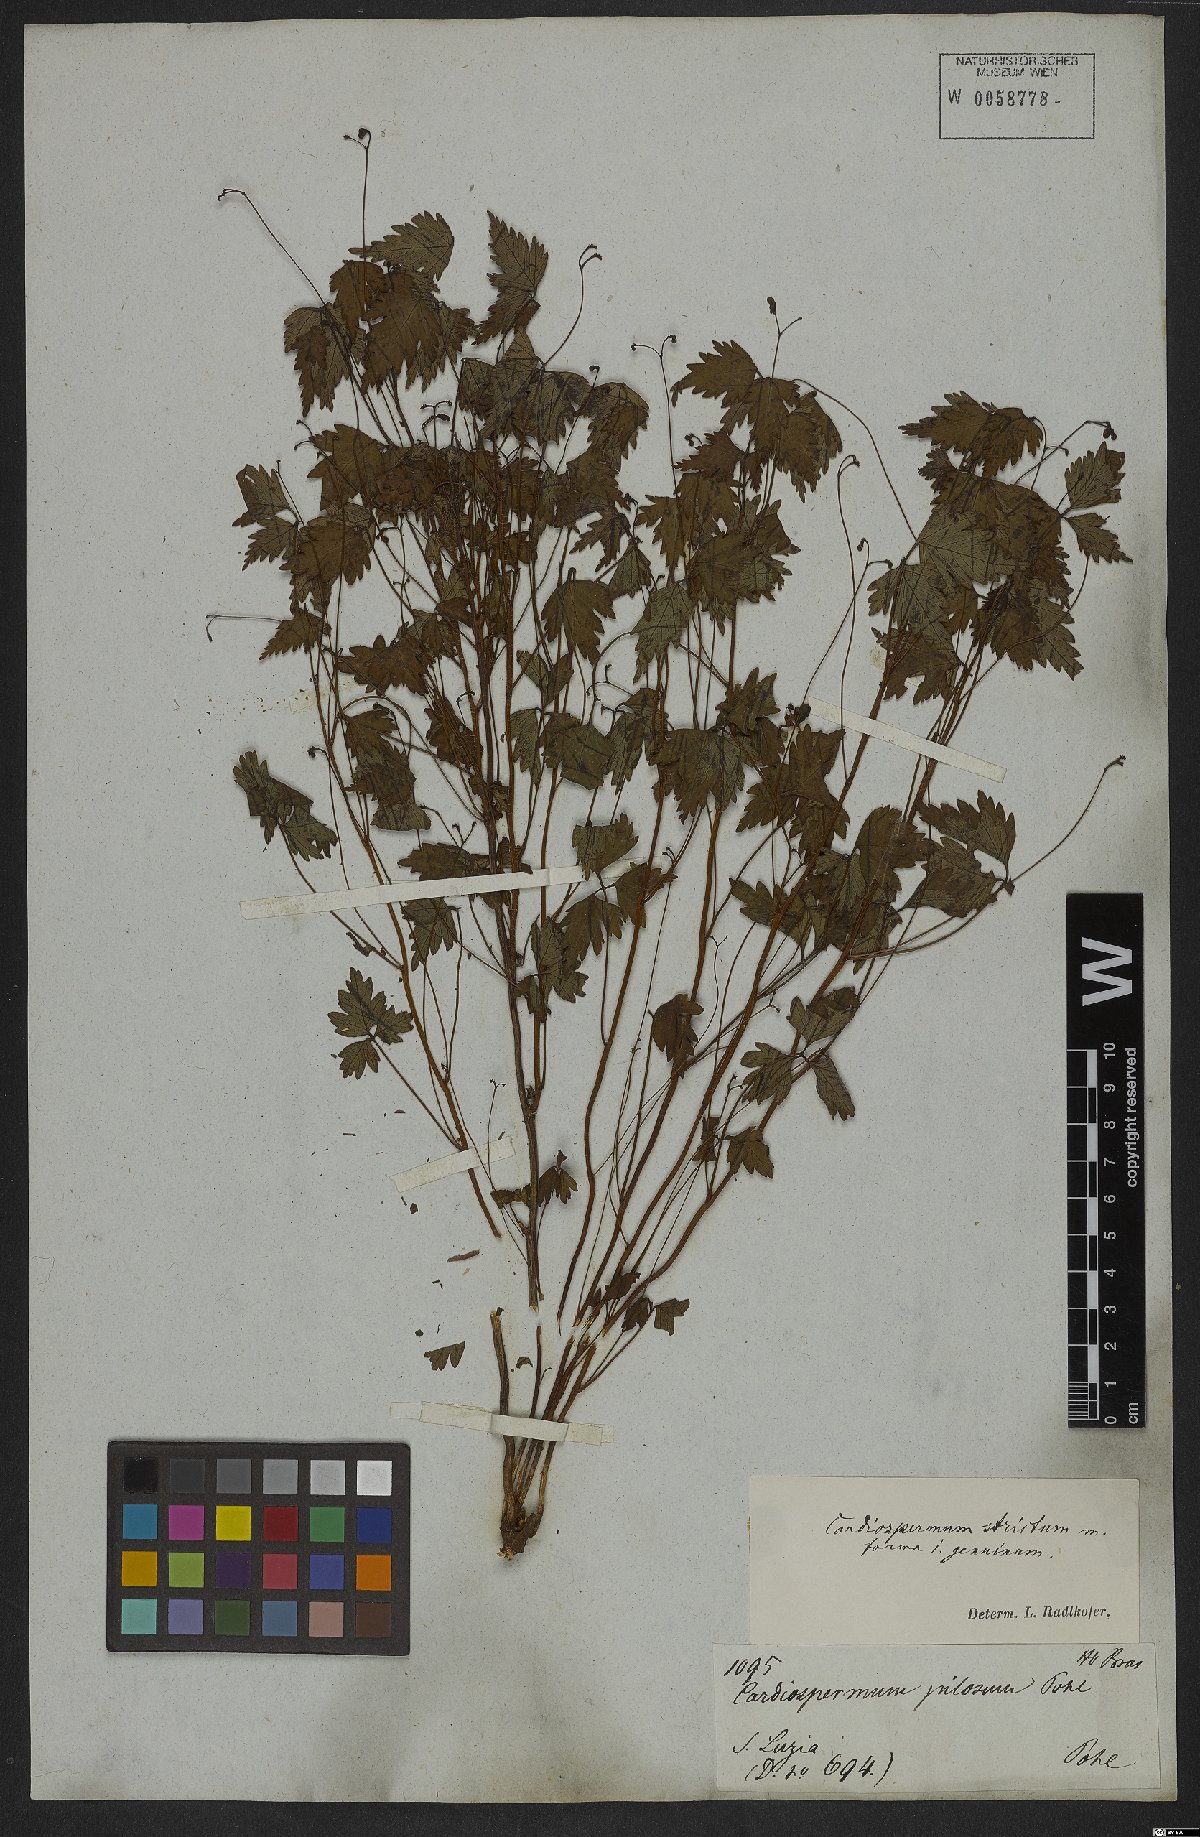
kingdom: Plantae
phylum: Tracheophyta
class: Magnoliopsida
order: Sapindales
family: Sapindaceae
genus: Cardiospermum
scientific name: Cardiospermum anomalum
